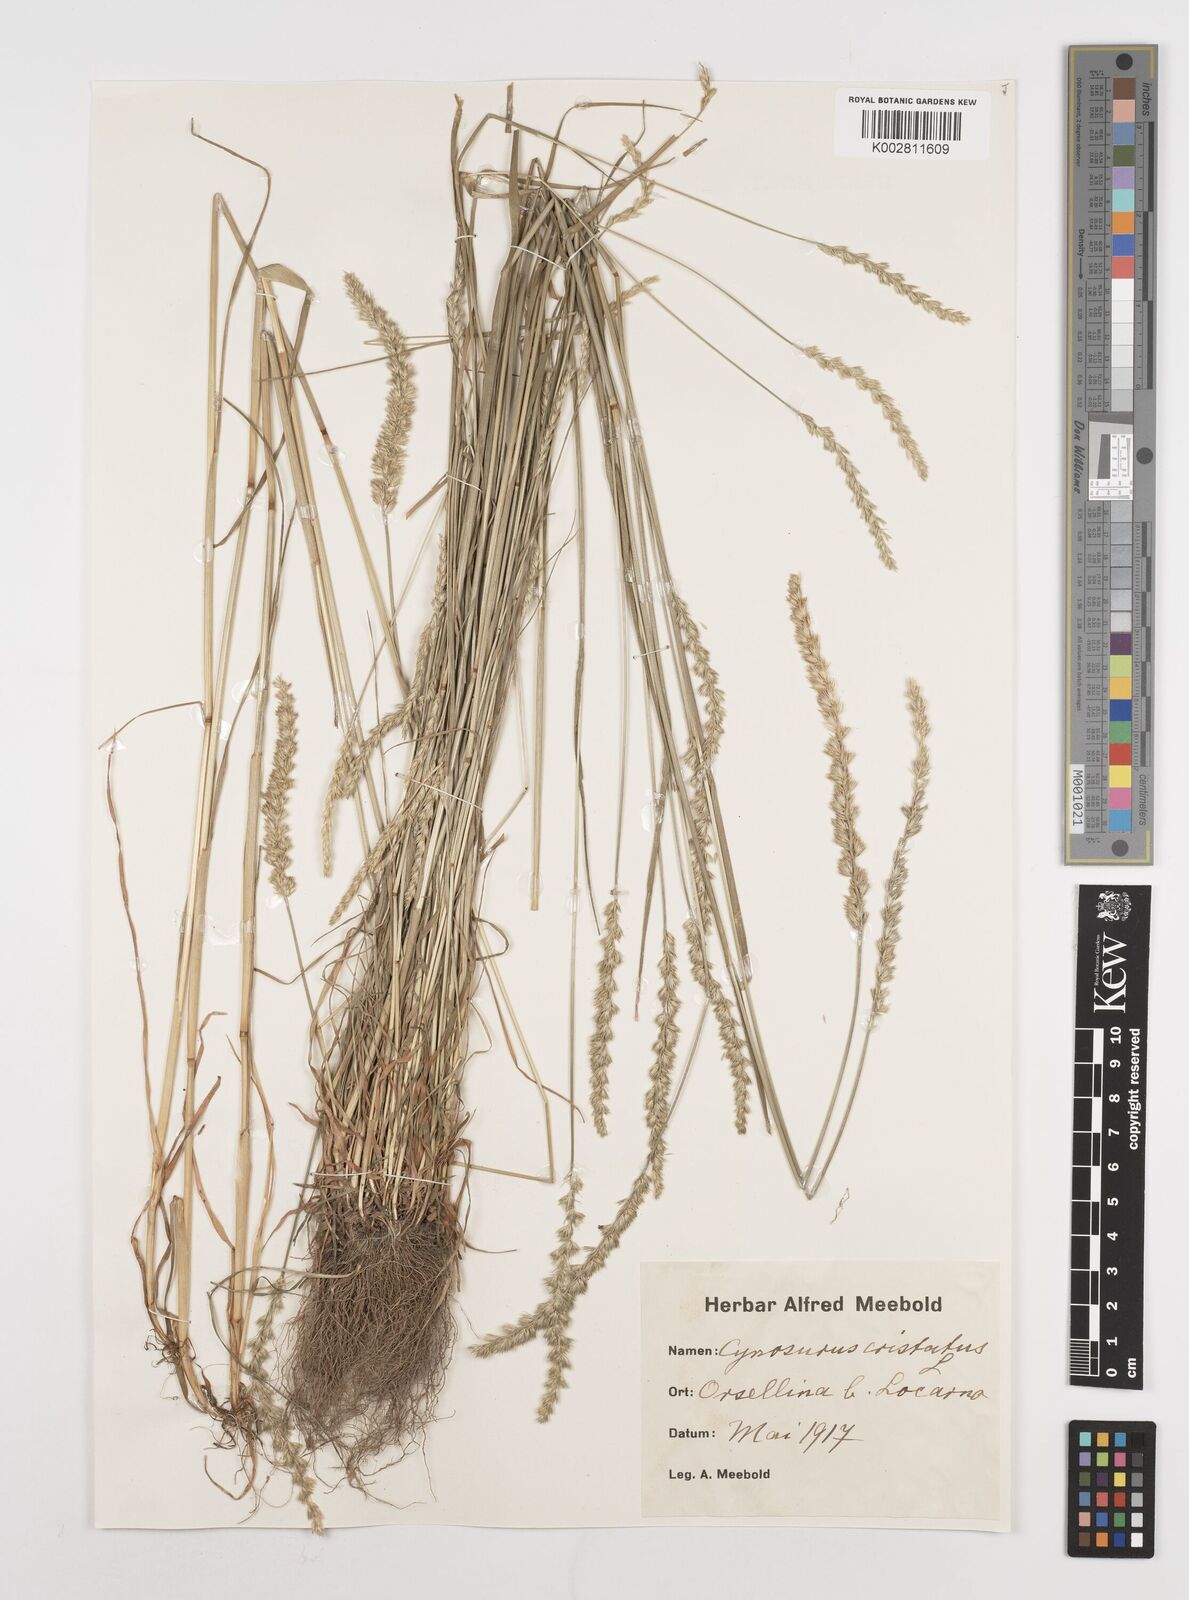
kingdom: Plantae
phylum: Tracheophyta
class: Liliopsida
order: Poales
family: Poaceae
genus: Cynosurus
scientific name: Cynosurus cristatus
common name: Crested dog's-tail
